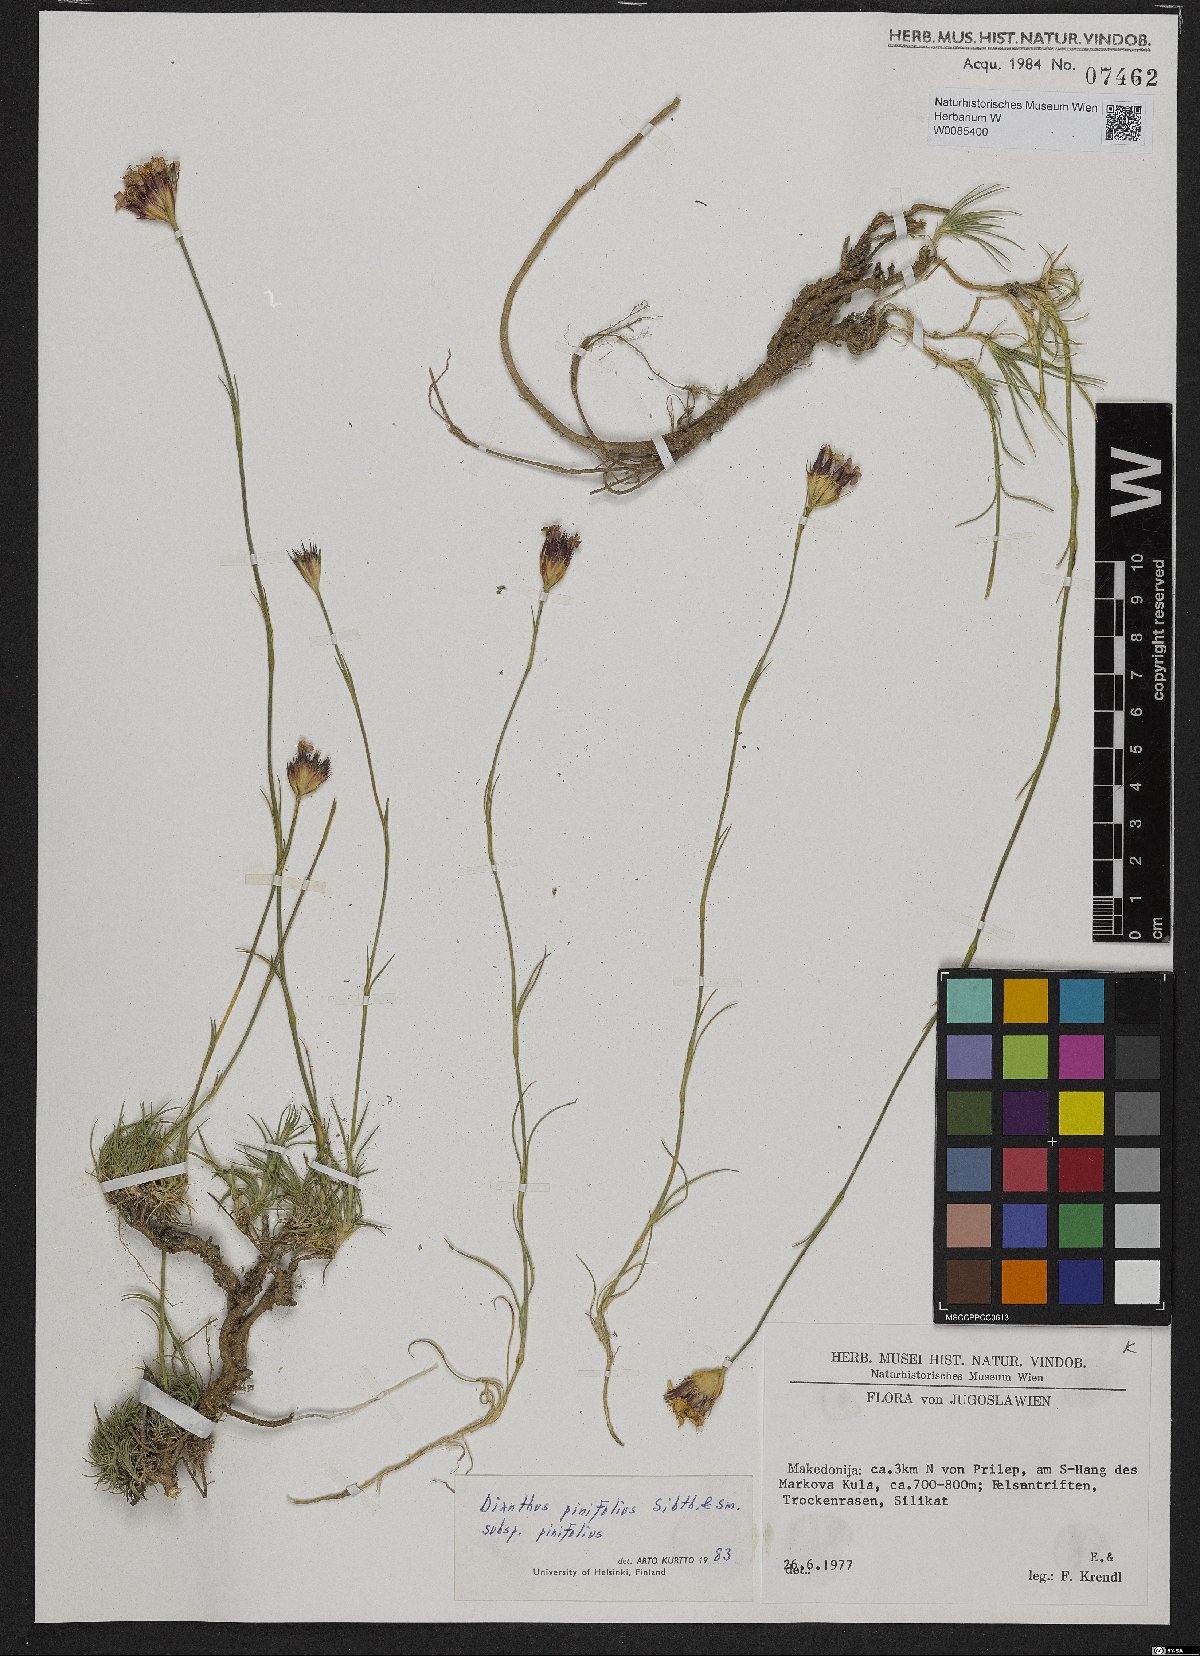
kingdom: Plantae
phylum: Tracheophyta
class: Magnoliopsida
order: Caryophyllales
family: Caryophyllaceae
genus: Dianthus
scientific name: Dianthus pinifolius
